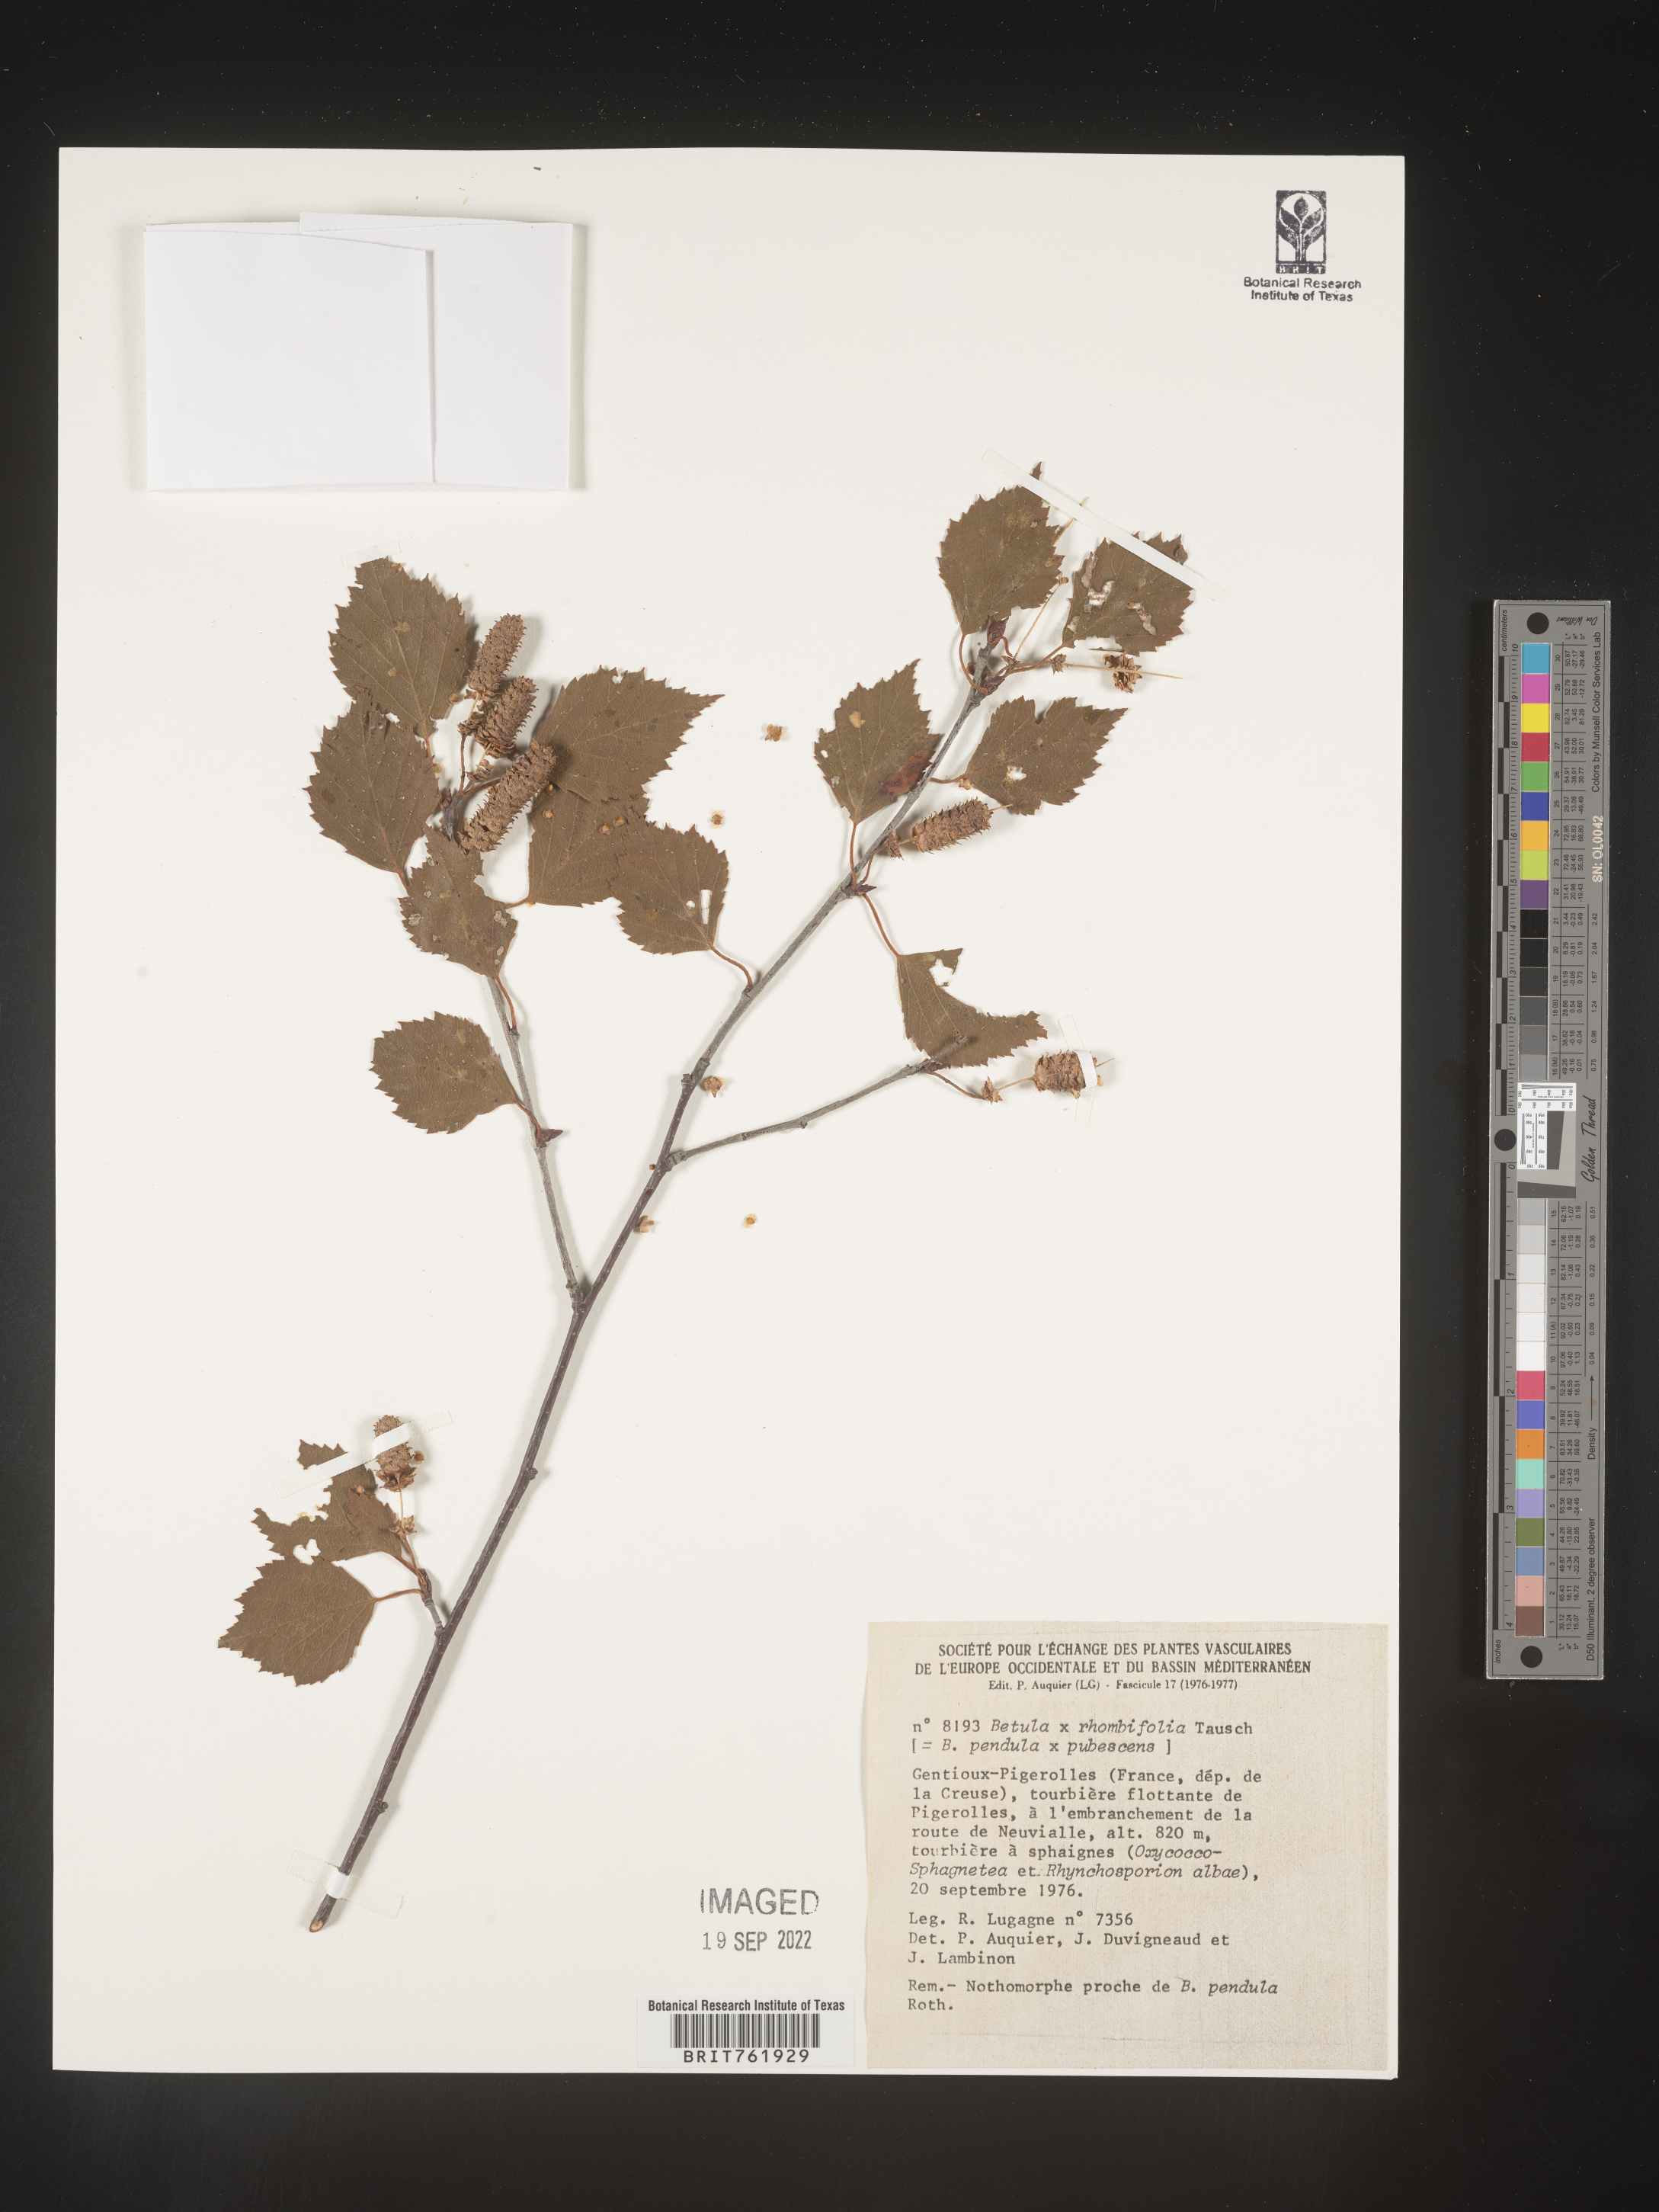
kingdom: Plantae
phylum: Tracheophyta
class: Magnoliopsida
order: Fagales
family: Betulaceae
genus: Betula
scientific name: Betula
